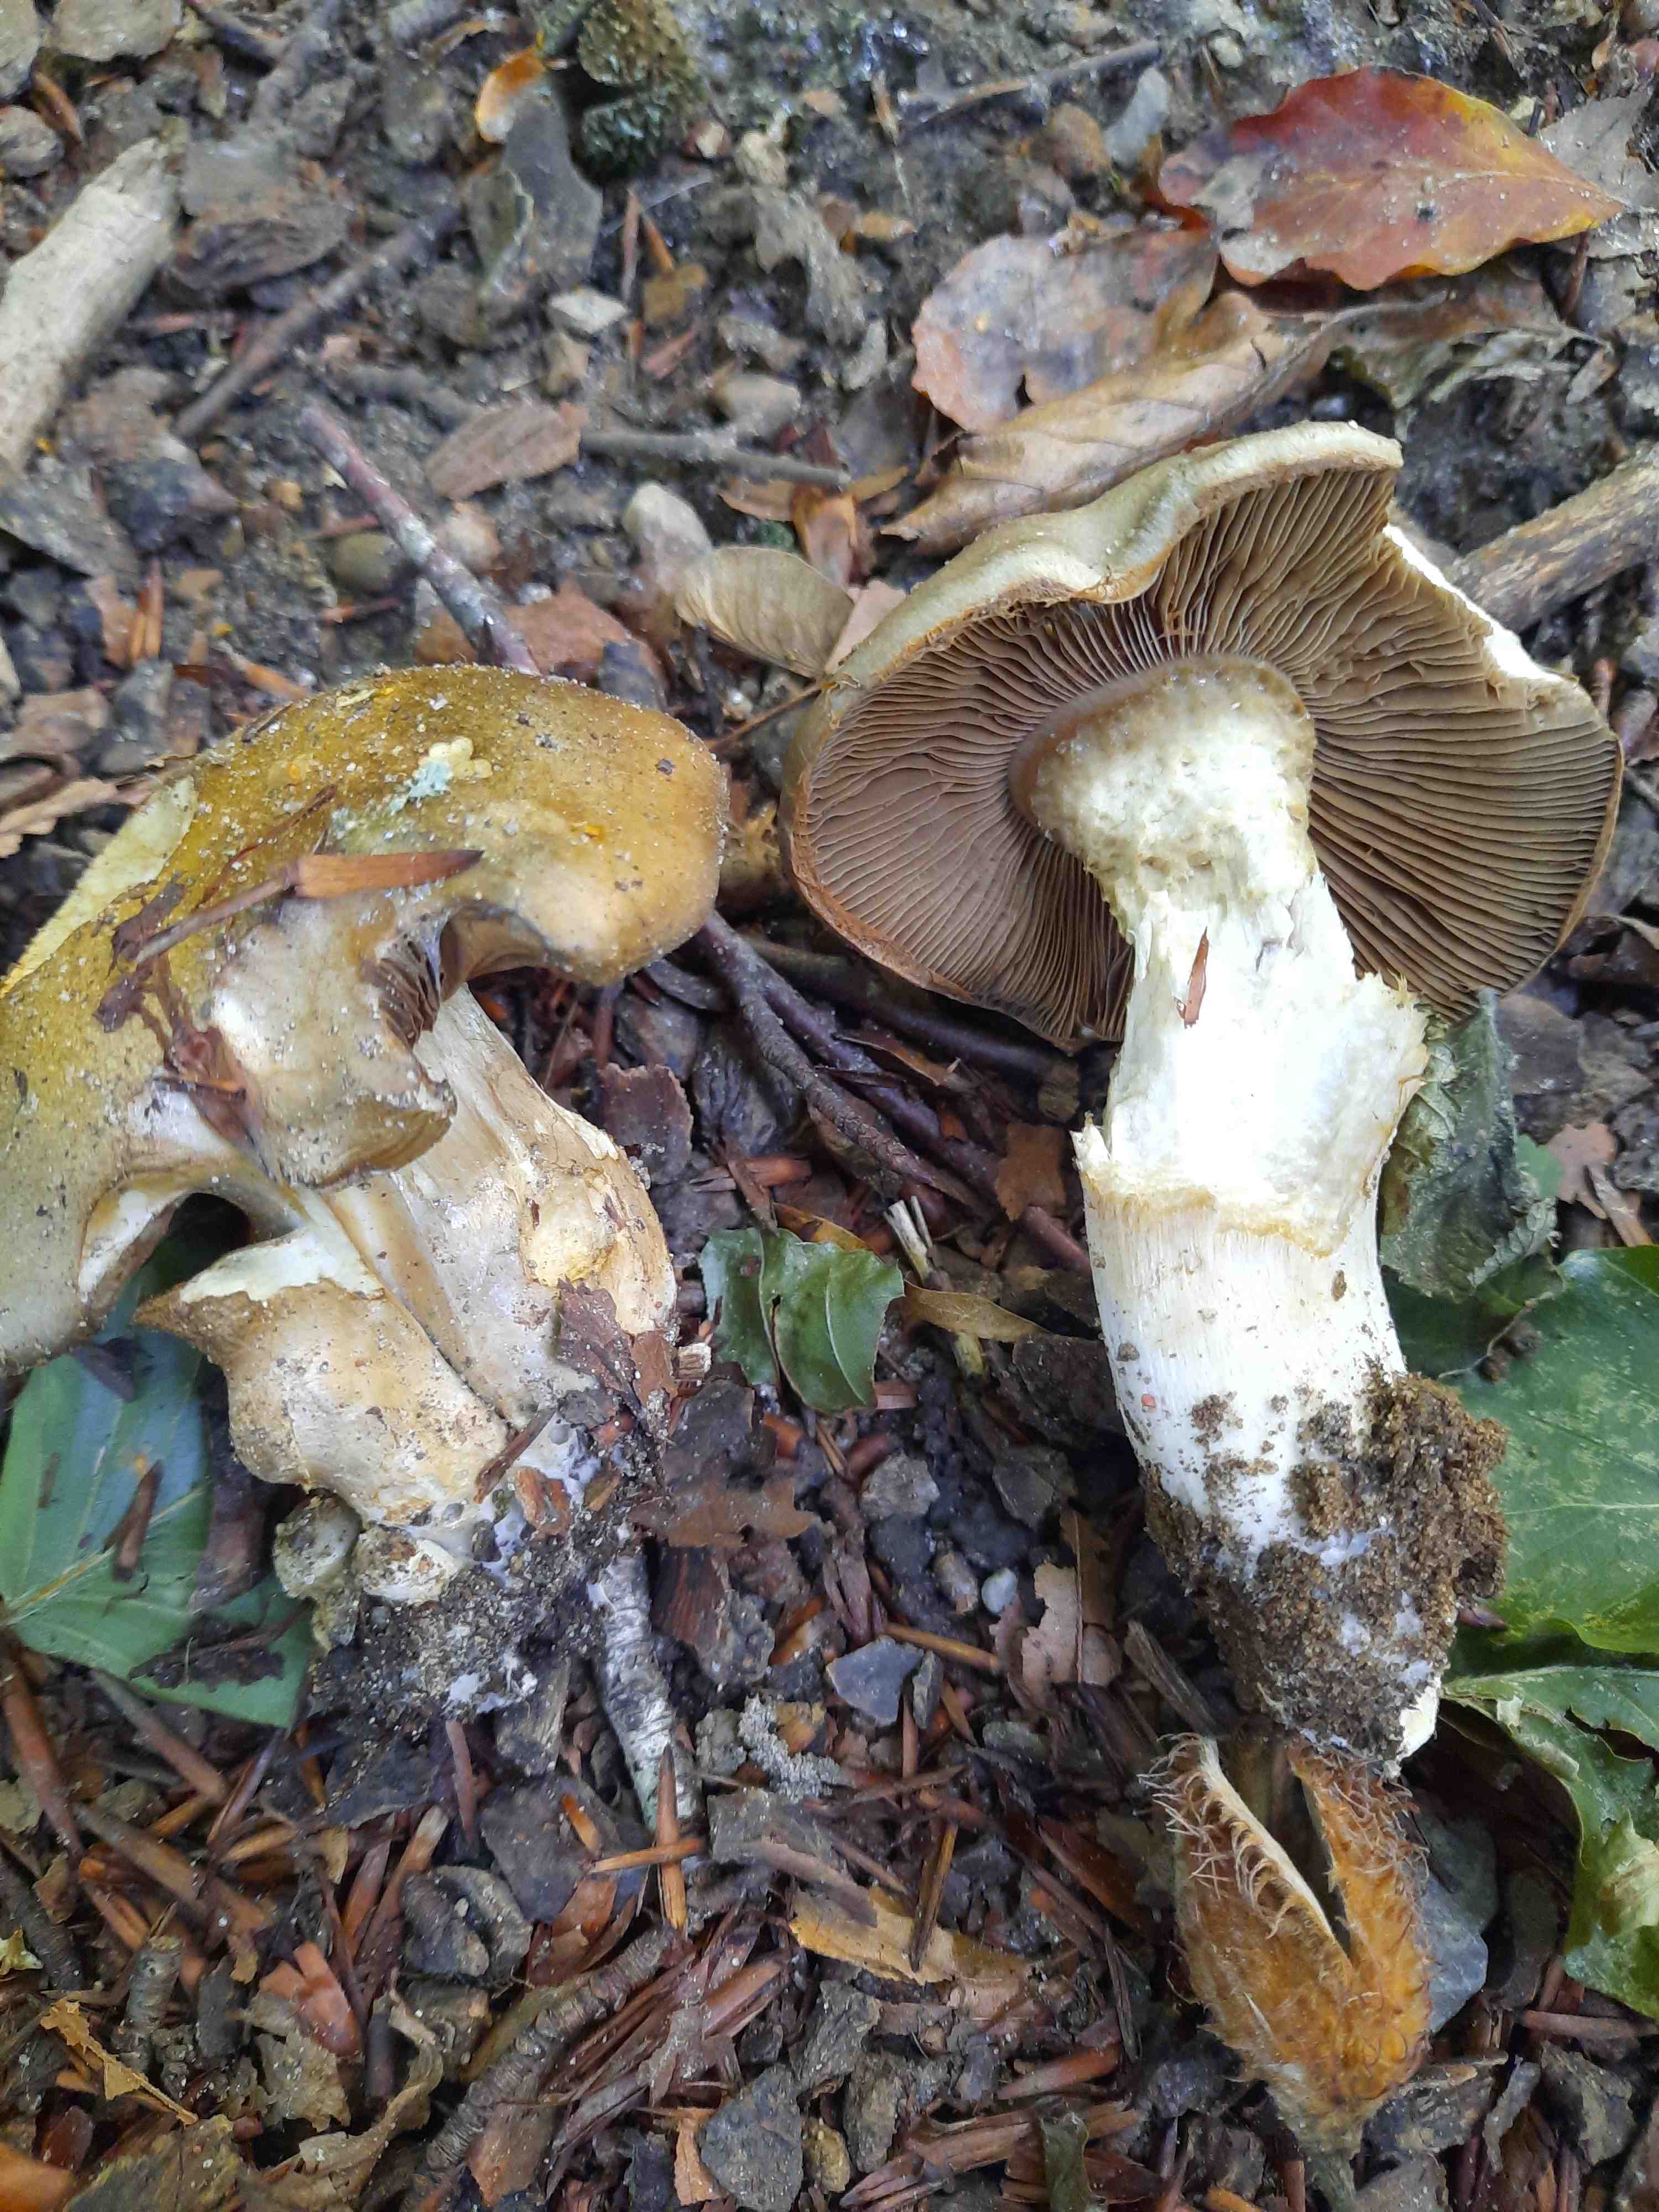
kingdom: Fungi
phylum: Basidiomycota
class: Agaricomycetes
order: Agaricales
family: Cortinariaceae
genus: Cortinarius
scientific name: Cortinarius
